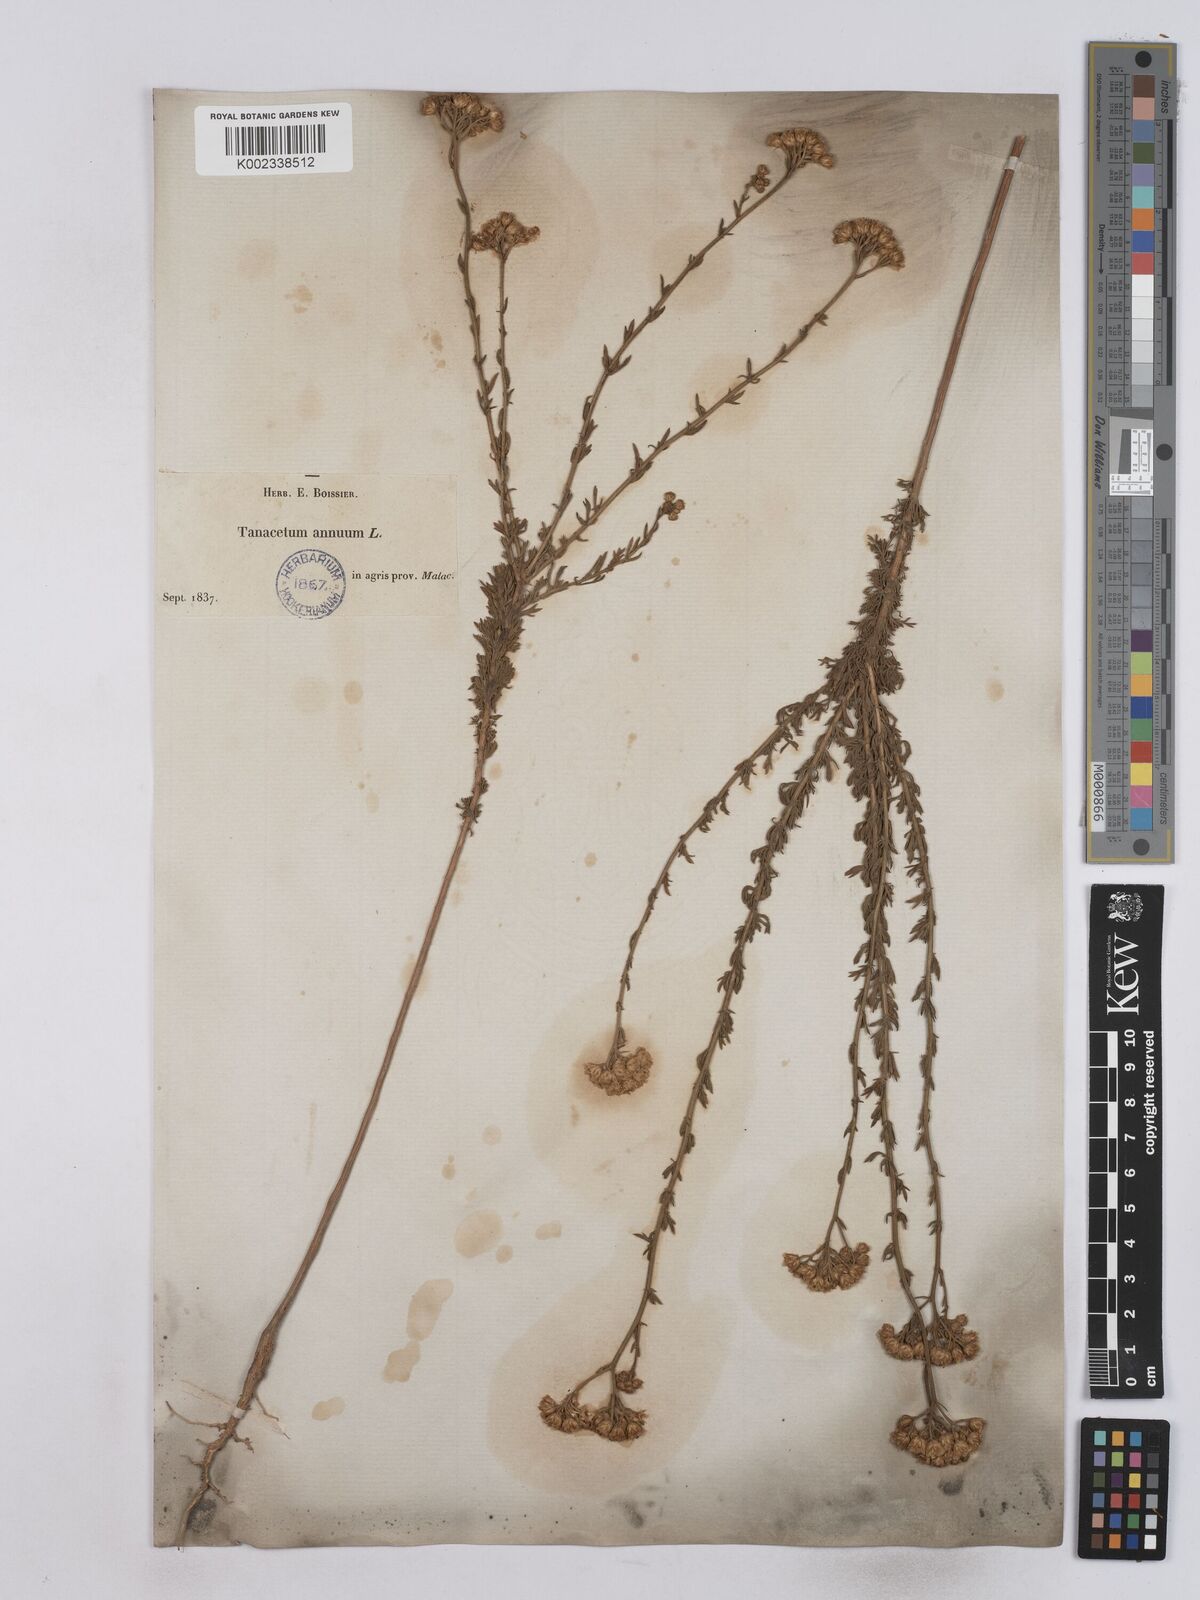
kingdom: Plantae
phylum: Tracheophyta
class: Magnoliopsida
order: Asterales
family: Asteraceae
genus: Vogtia
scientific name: Vogtia annua
